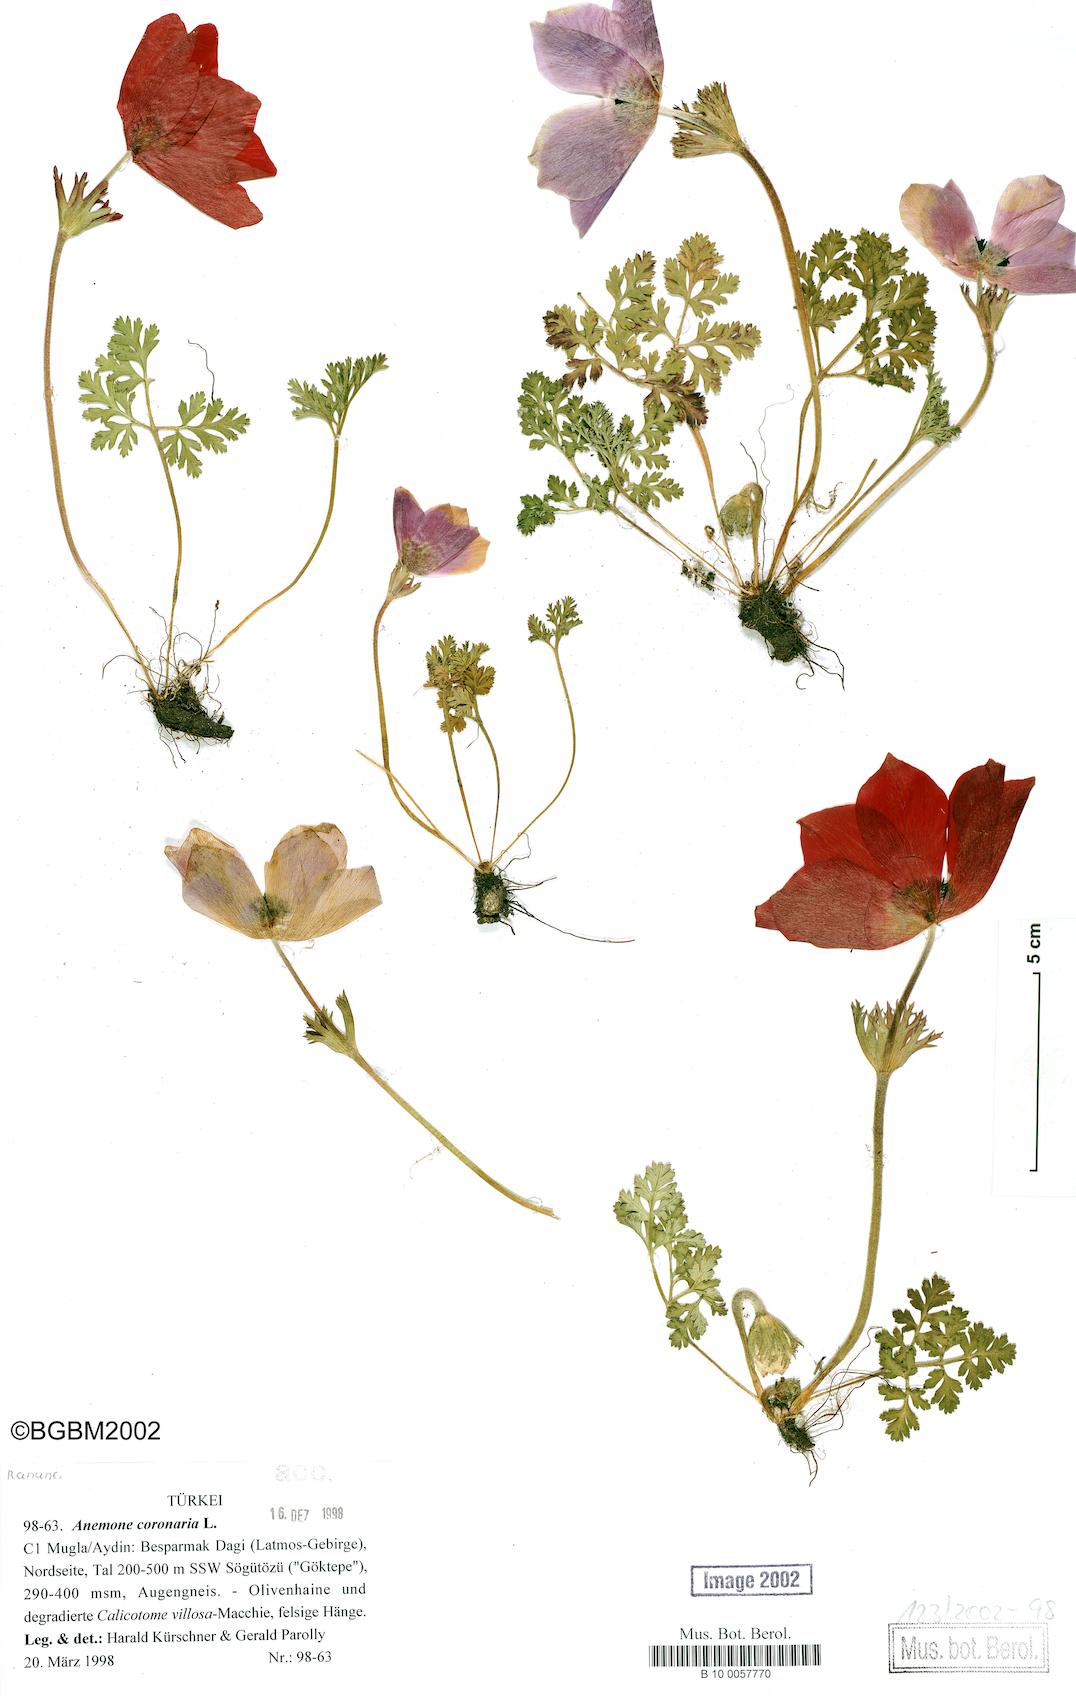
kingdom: Plantae
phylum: Tracheophyta
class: Magnoliopsida
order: Ranunculales
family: Ranunculaceae
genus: Anemone
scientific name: Anemone coronaria
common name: Poppy anemone
